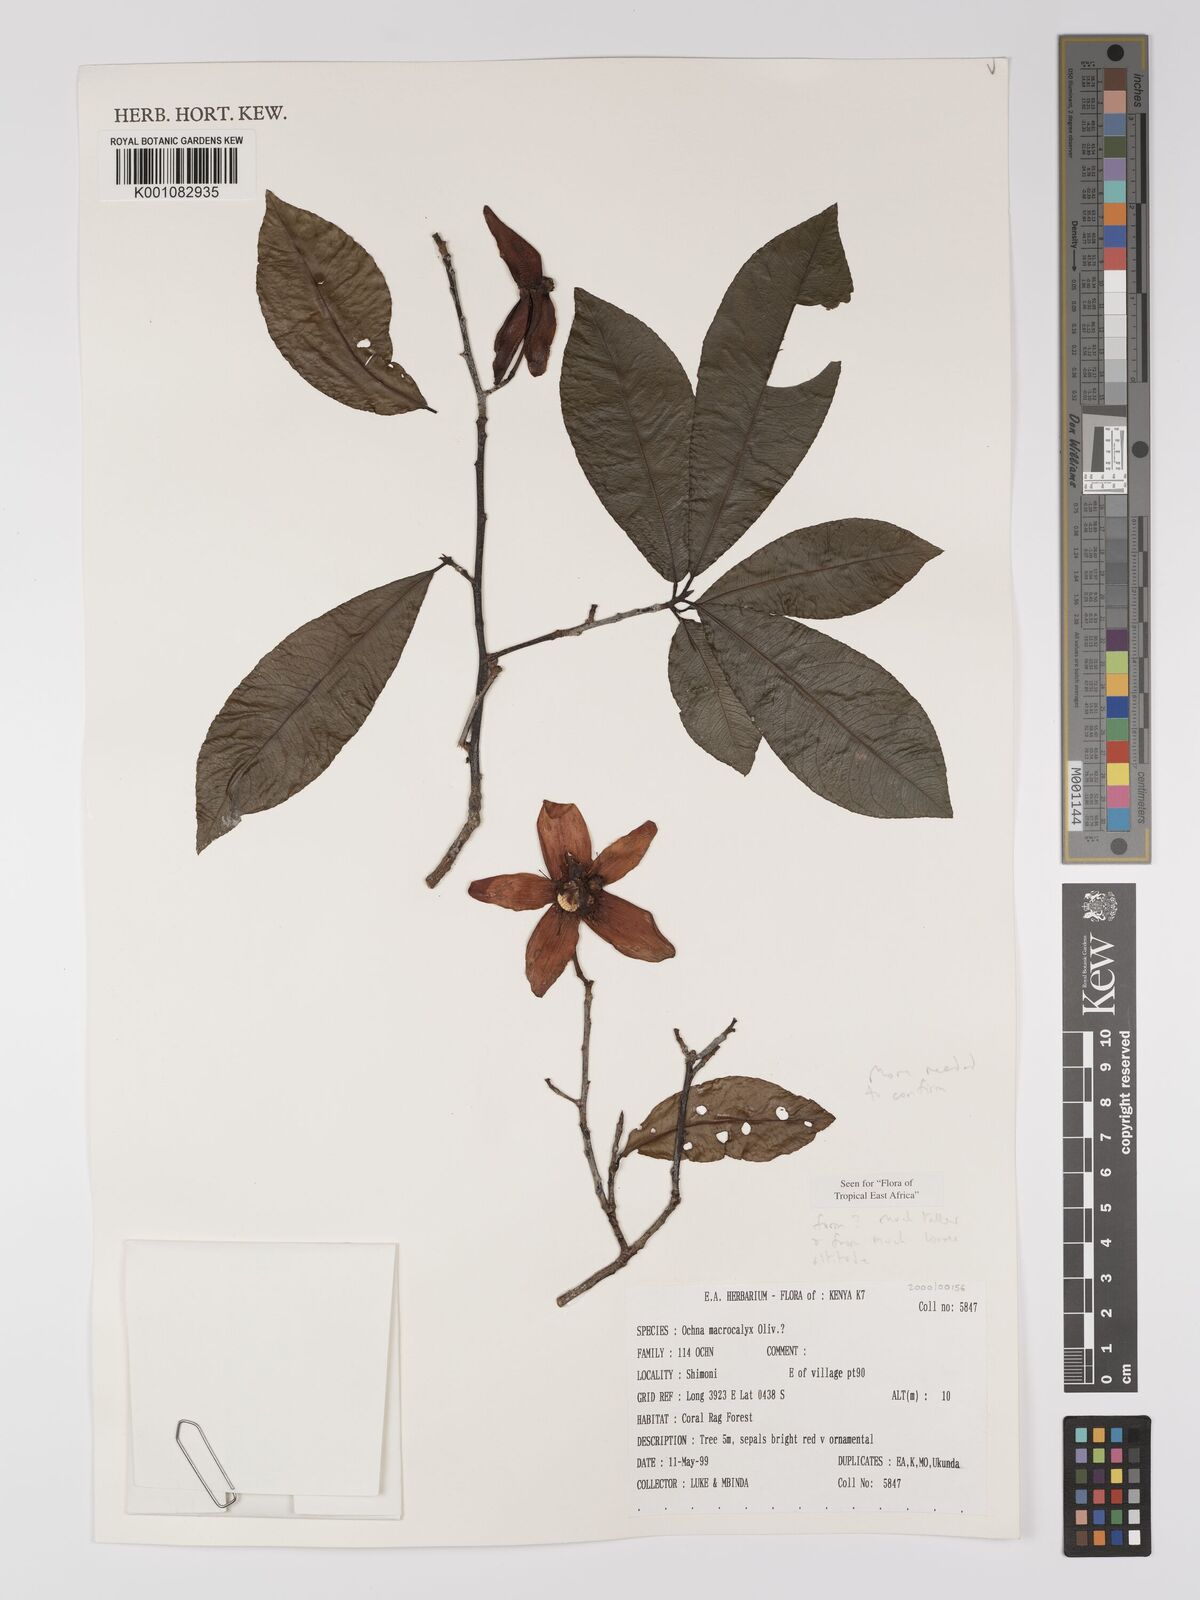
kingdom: Plantae
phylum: Tracheophyta
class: Magnoliopsida
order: Malpighiales
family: Ochnaceae
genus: Ochna
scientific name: Ochna macrocalyx
